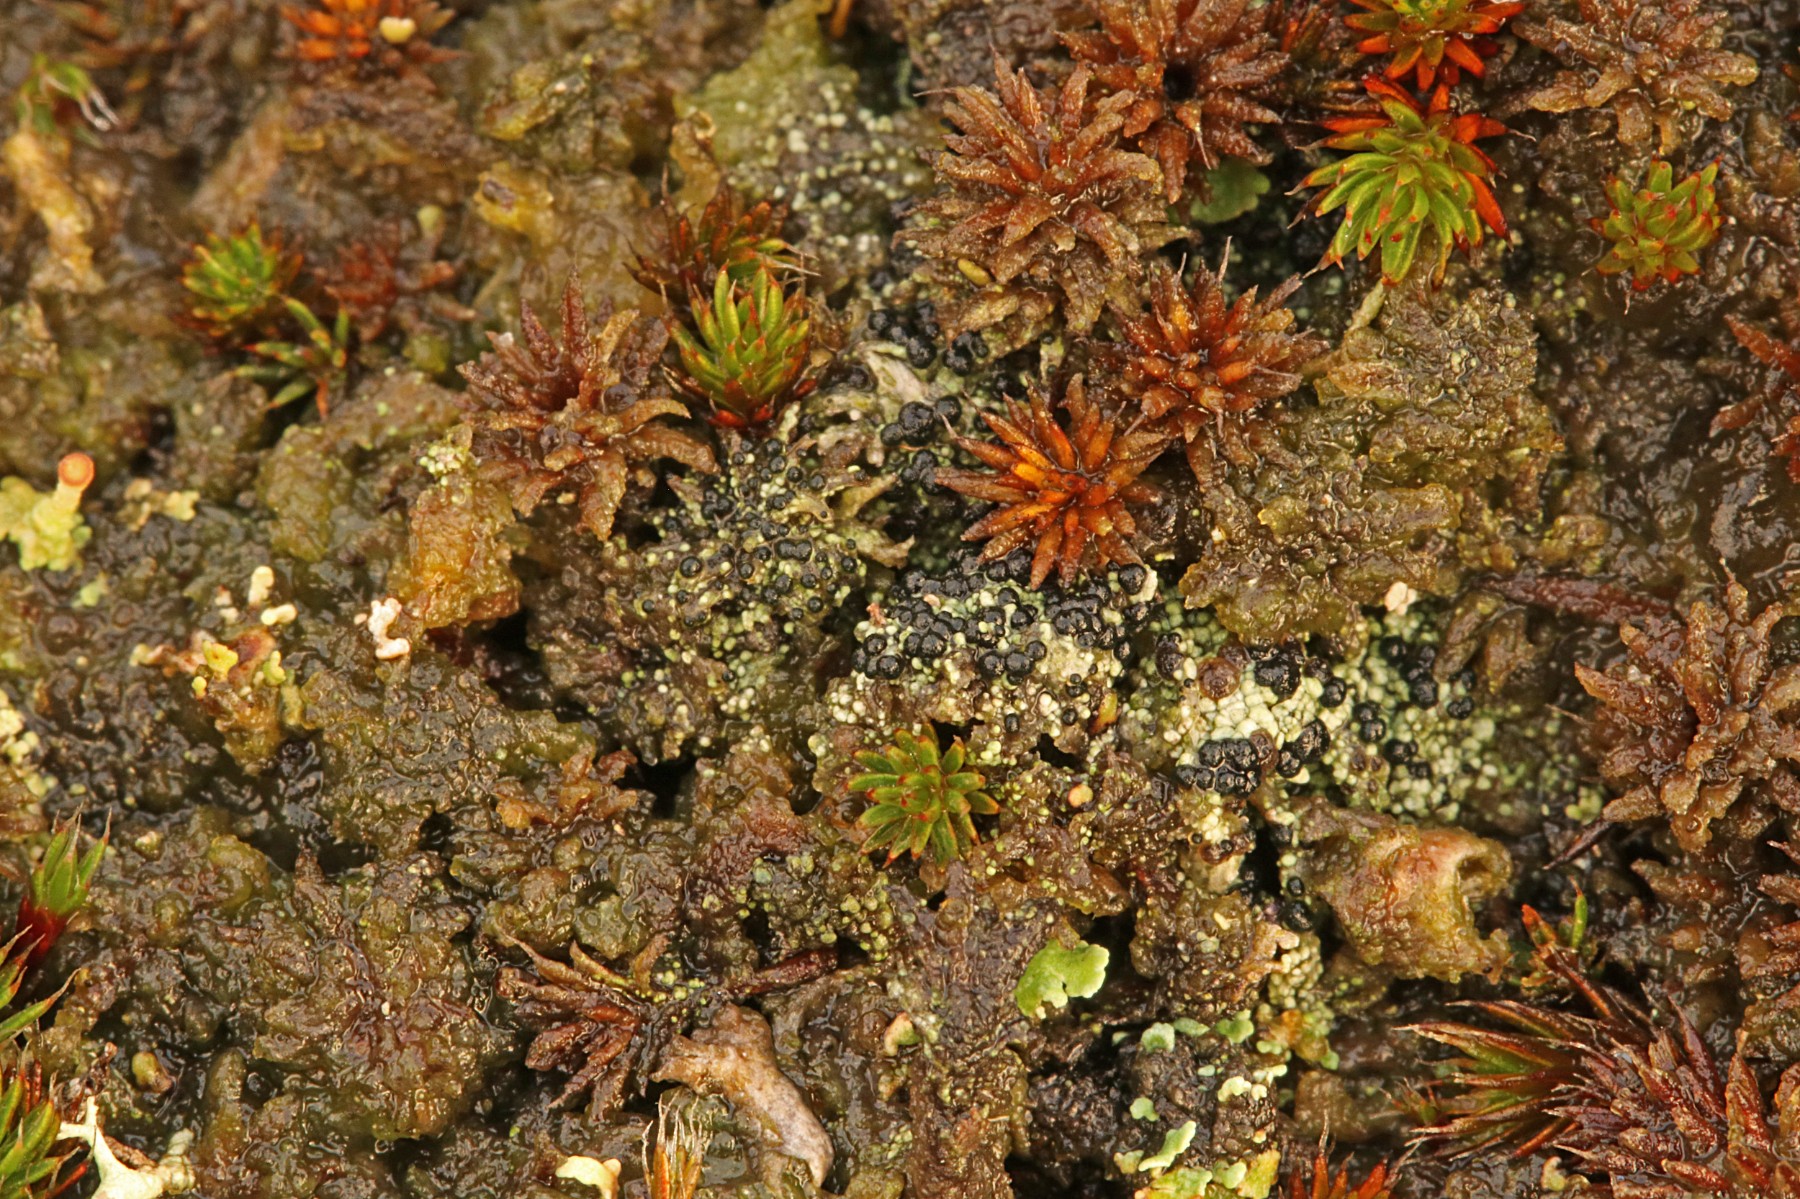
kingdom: Fungi
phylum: Ascomycota
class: Lecanoromycetes
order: Lecanorales
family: Byssolomataceae
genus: Micarea
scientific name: Micarea lignaria
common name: tørve-knaplav
